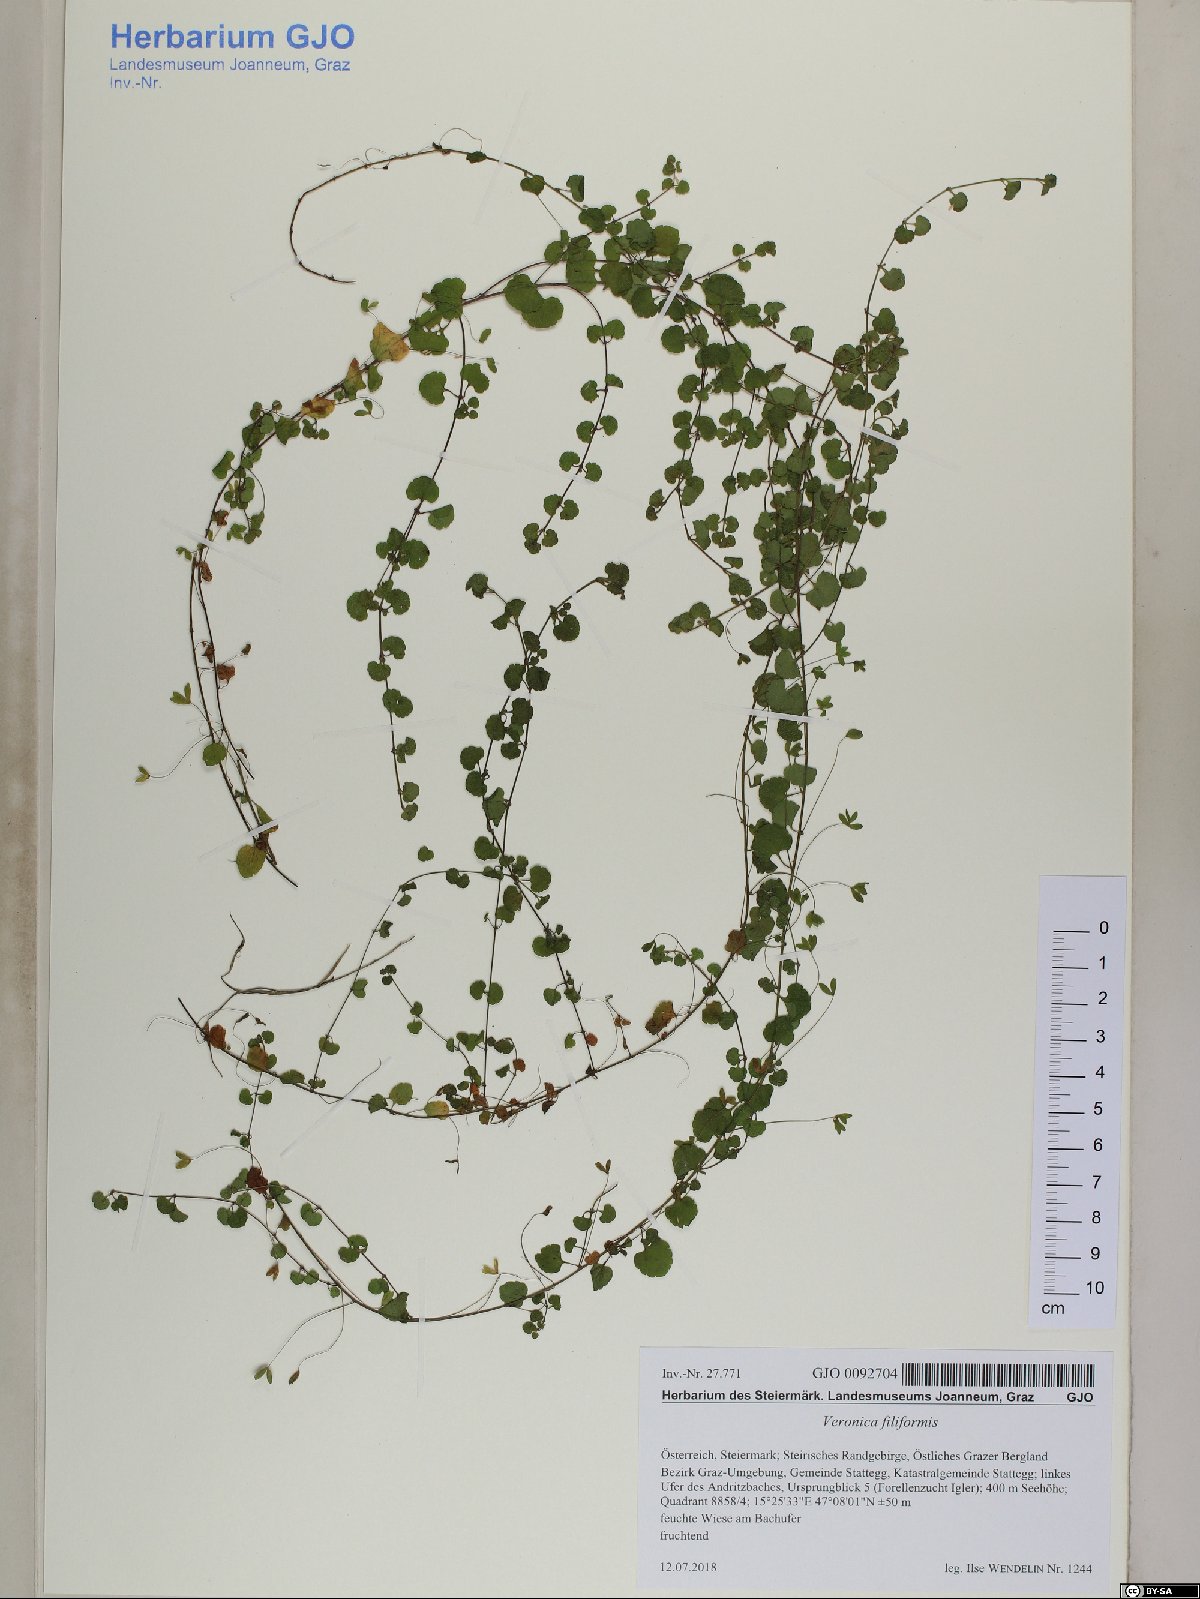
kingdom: Plantae
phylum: Tracheophyta
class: Magnoliopsida
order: Lamiales
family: Plantaginaceae
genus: Veronica
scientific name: Veronica filiformis
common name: Slender speedwell
